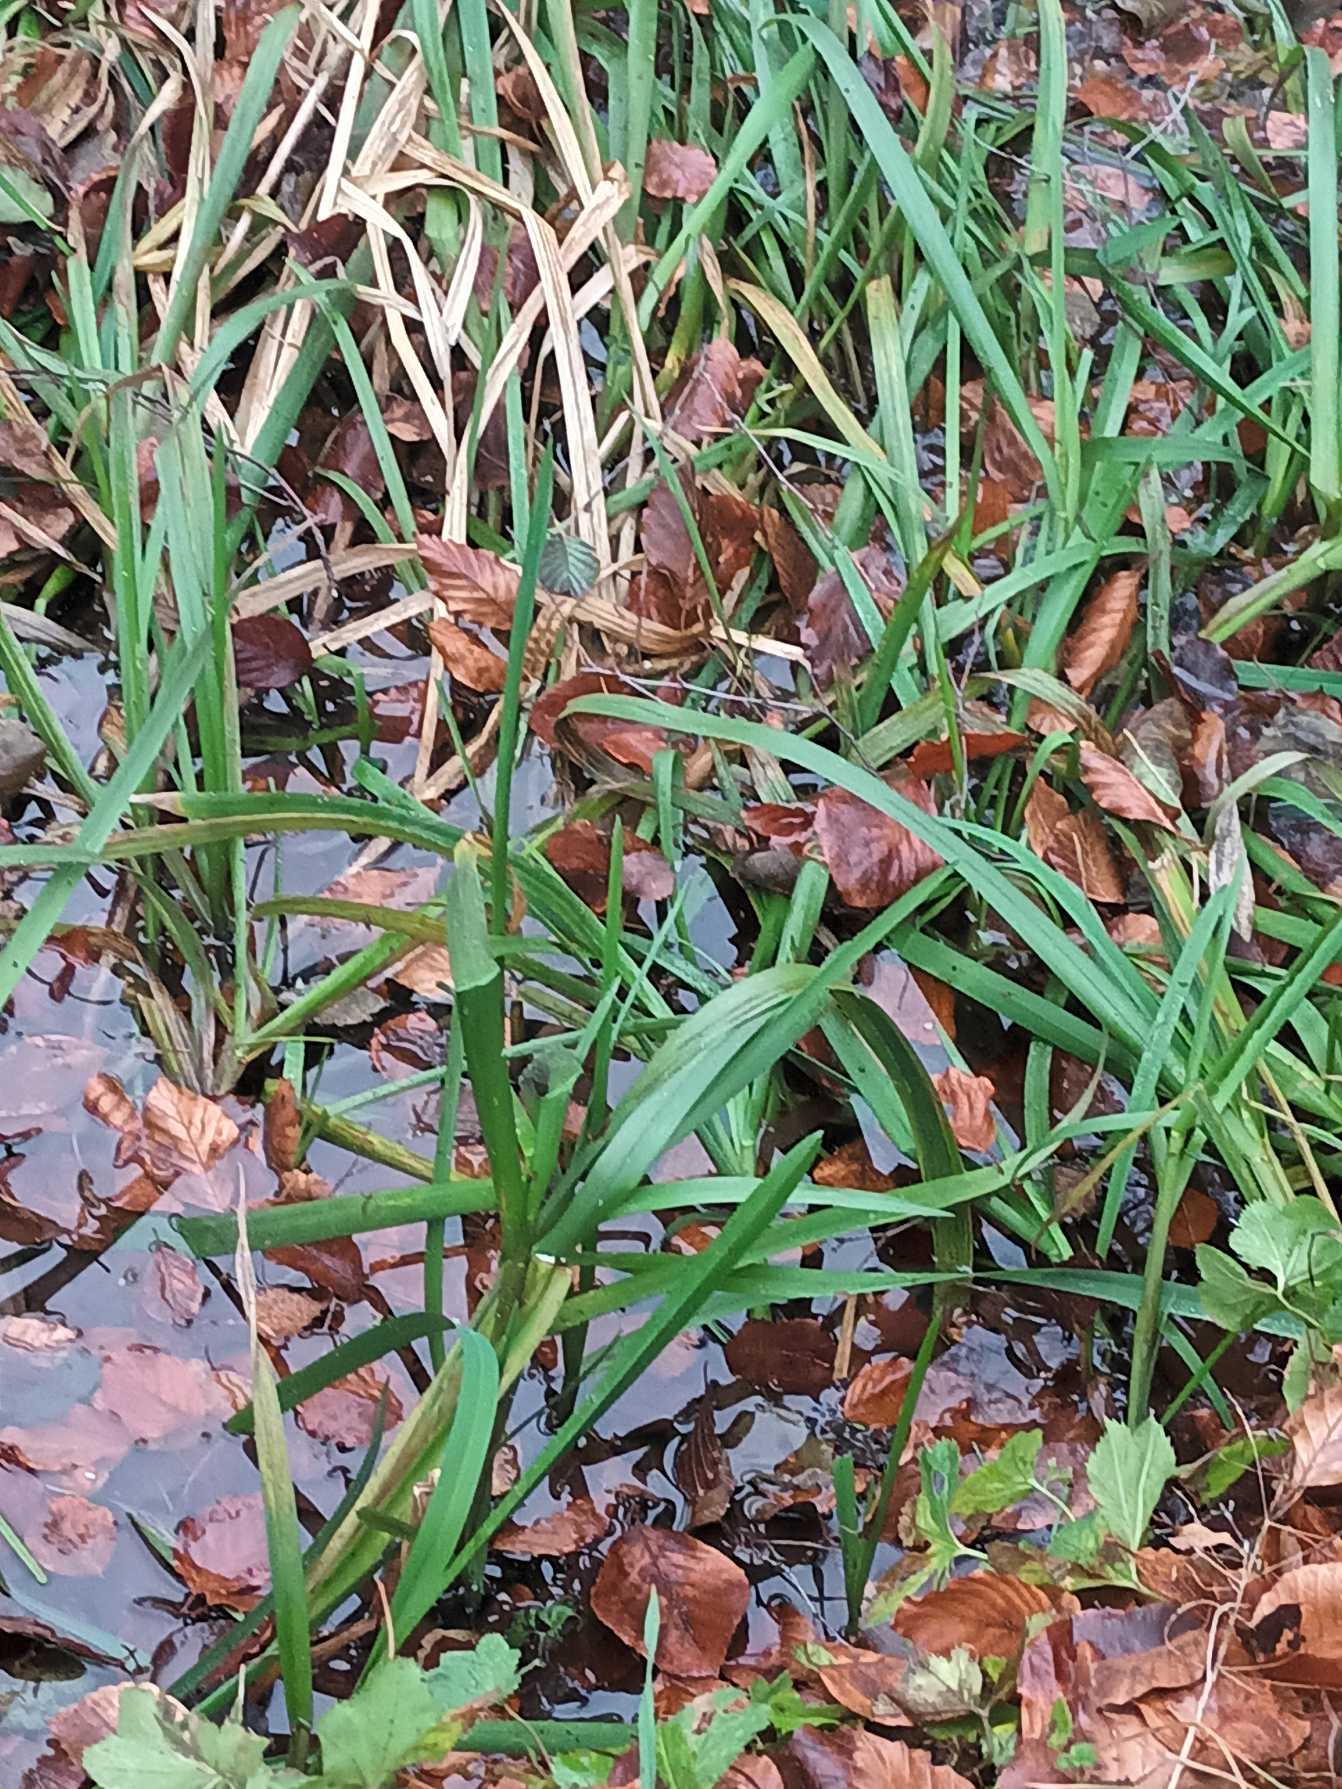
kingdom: Plantae
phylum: Tracheophyta
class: Liliopsida
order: Poales
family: Poaceae
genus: Glyceria
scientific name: Glyceria maxima
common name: Høj sødgræs
